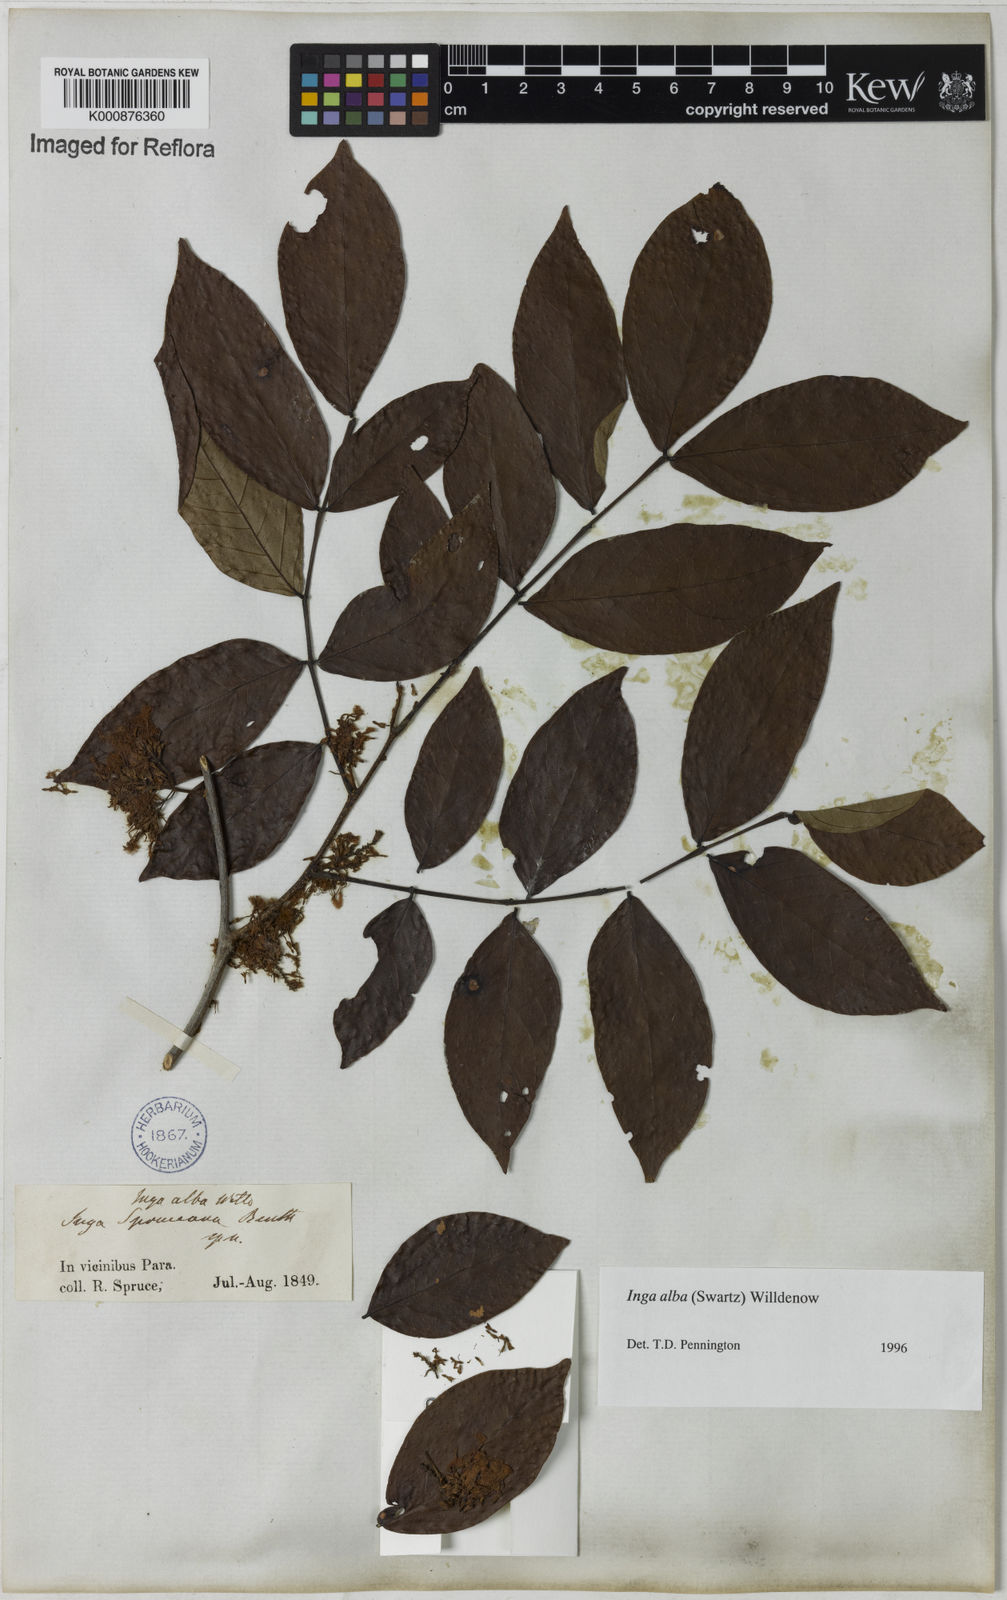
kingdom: Plantae
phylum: Tracheophyta
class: Magnoliopsida
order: Fabales
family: Fabaceae
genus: Inga
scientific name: Inga alba
